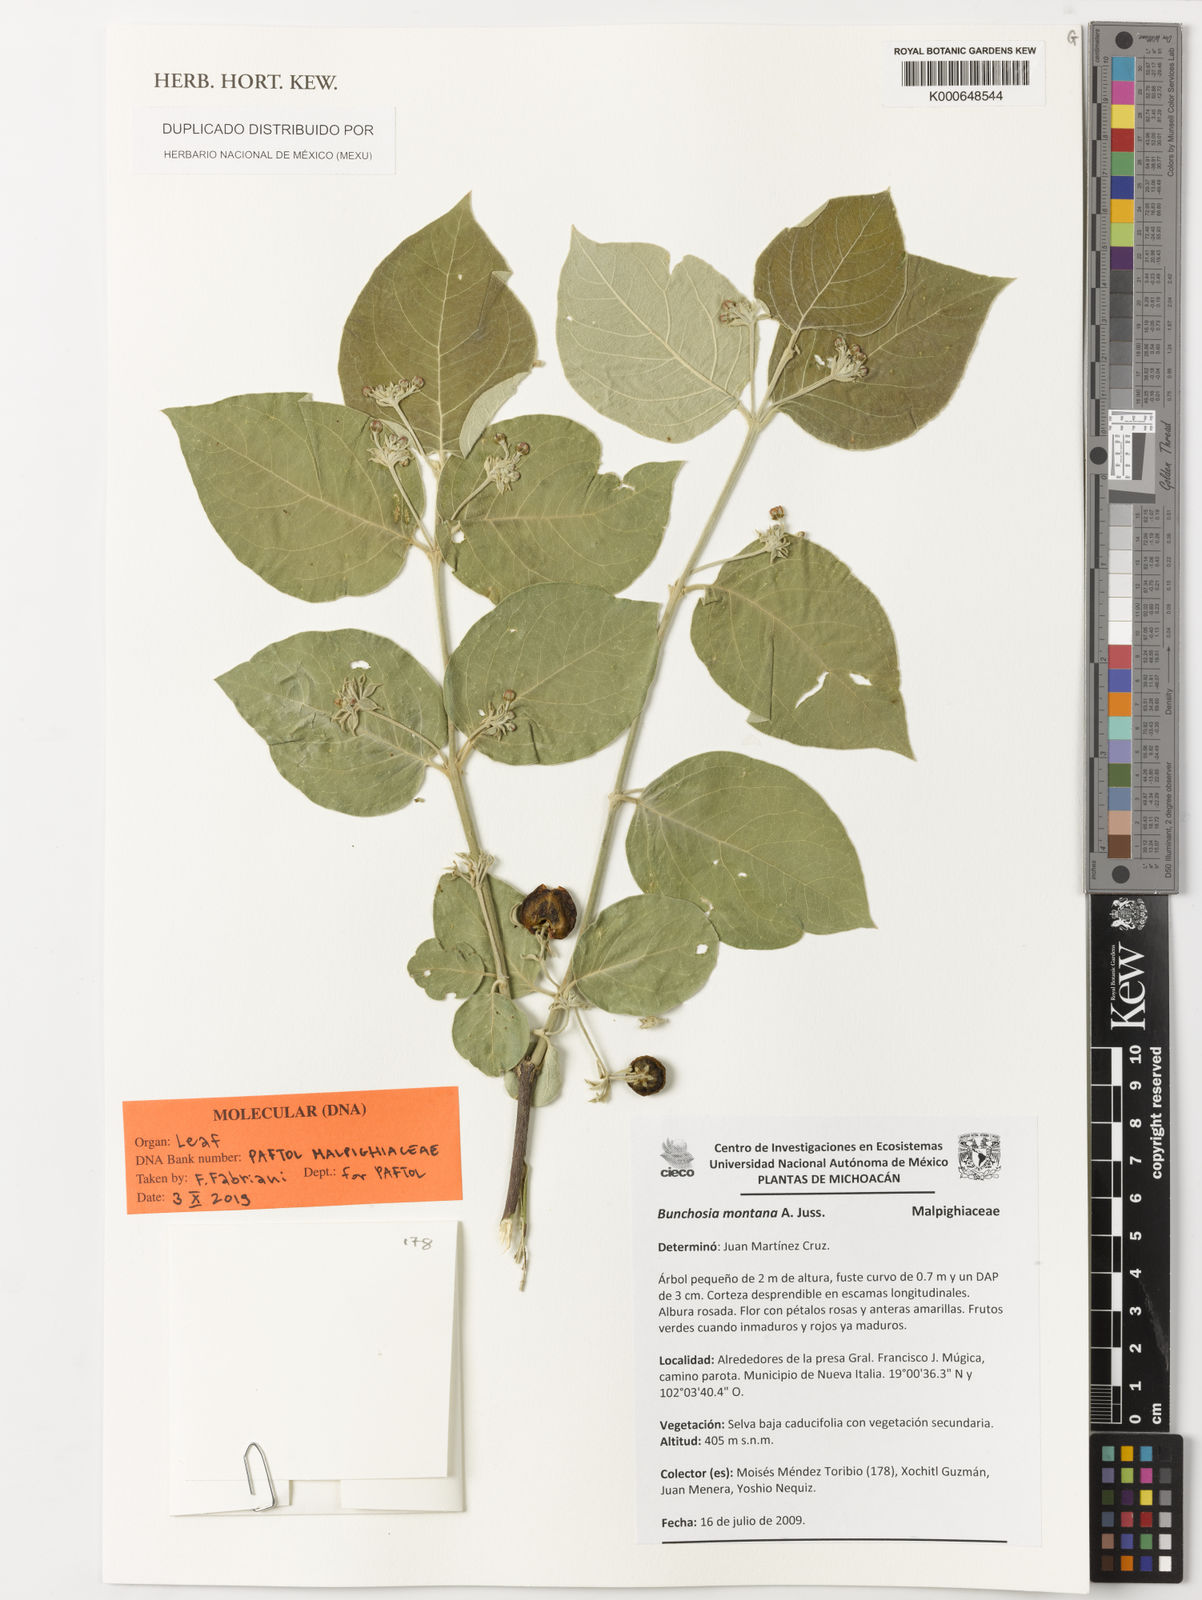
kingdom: Plantae
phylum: Tracheophyta
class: Magnoliopsida
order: Malpighiales
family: Malpighiaceae
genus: Bunchosia
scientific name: Bunchosia montana
